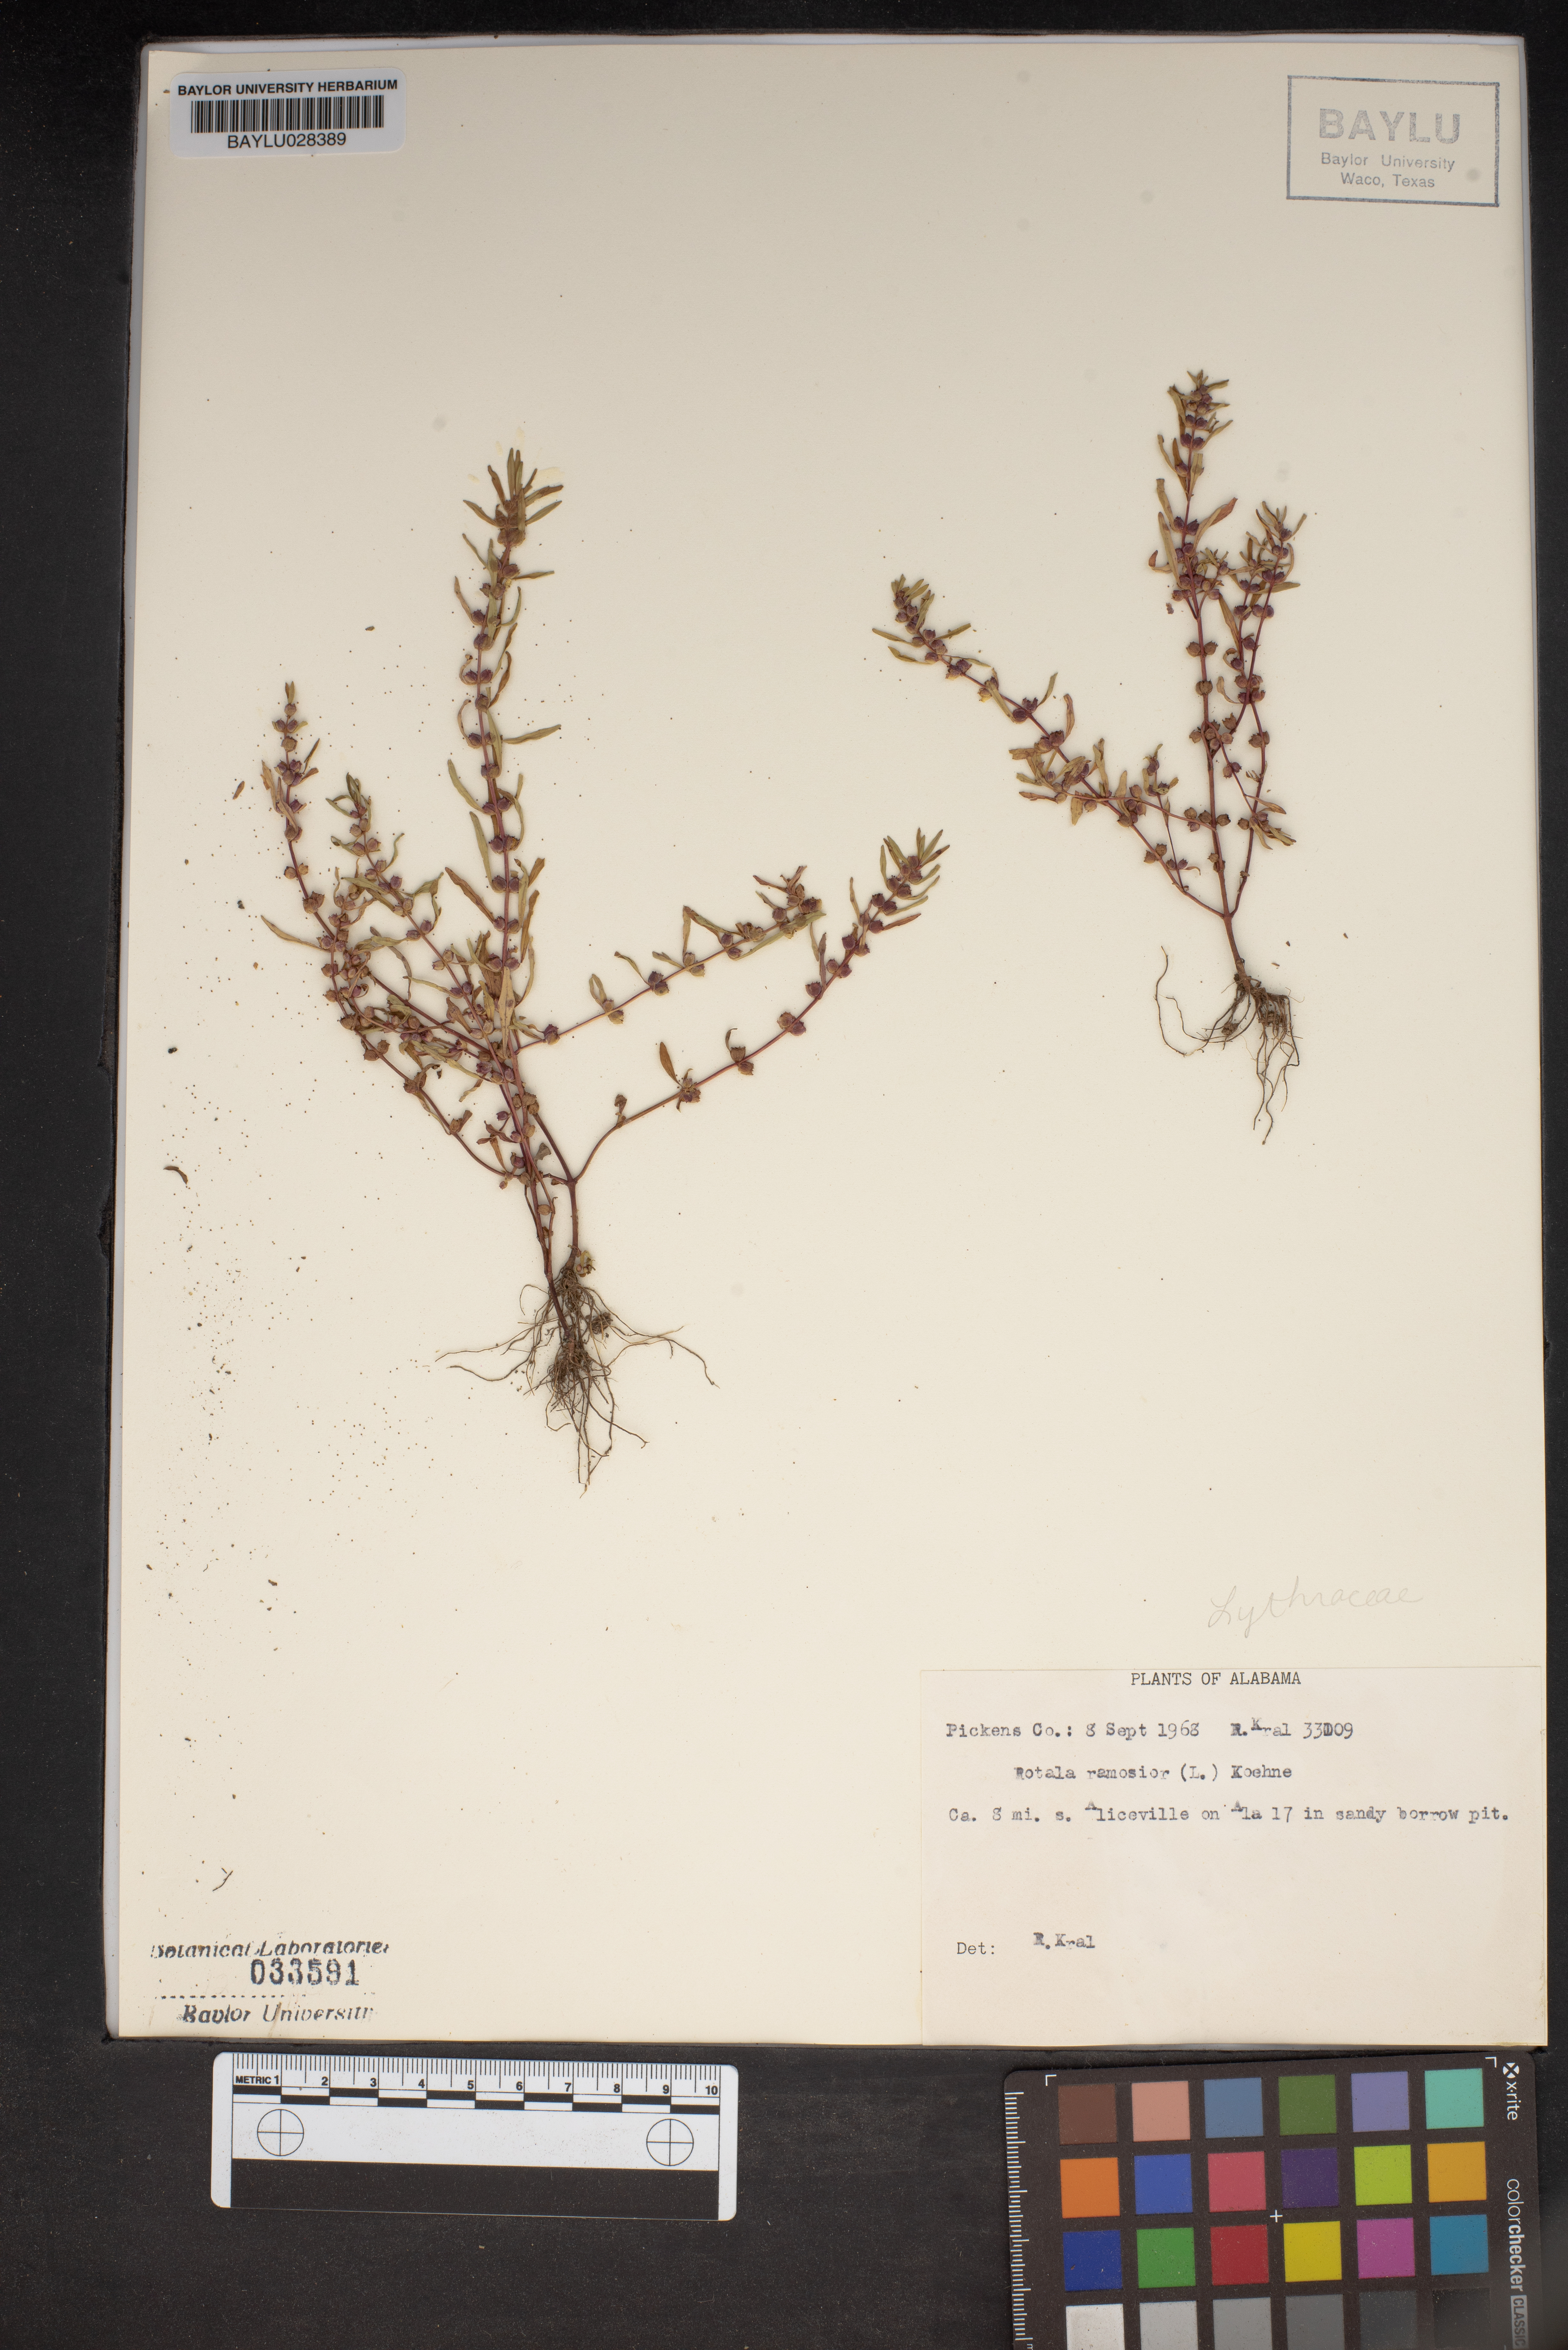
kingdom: Plantae
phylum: Tracheophyta
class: Magnoliopsida
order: Myrtales
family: Lythraceae
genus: Rotala
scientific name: Rotala ramosior
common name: Lowland rotala
